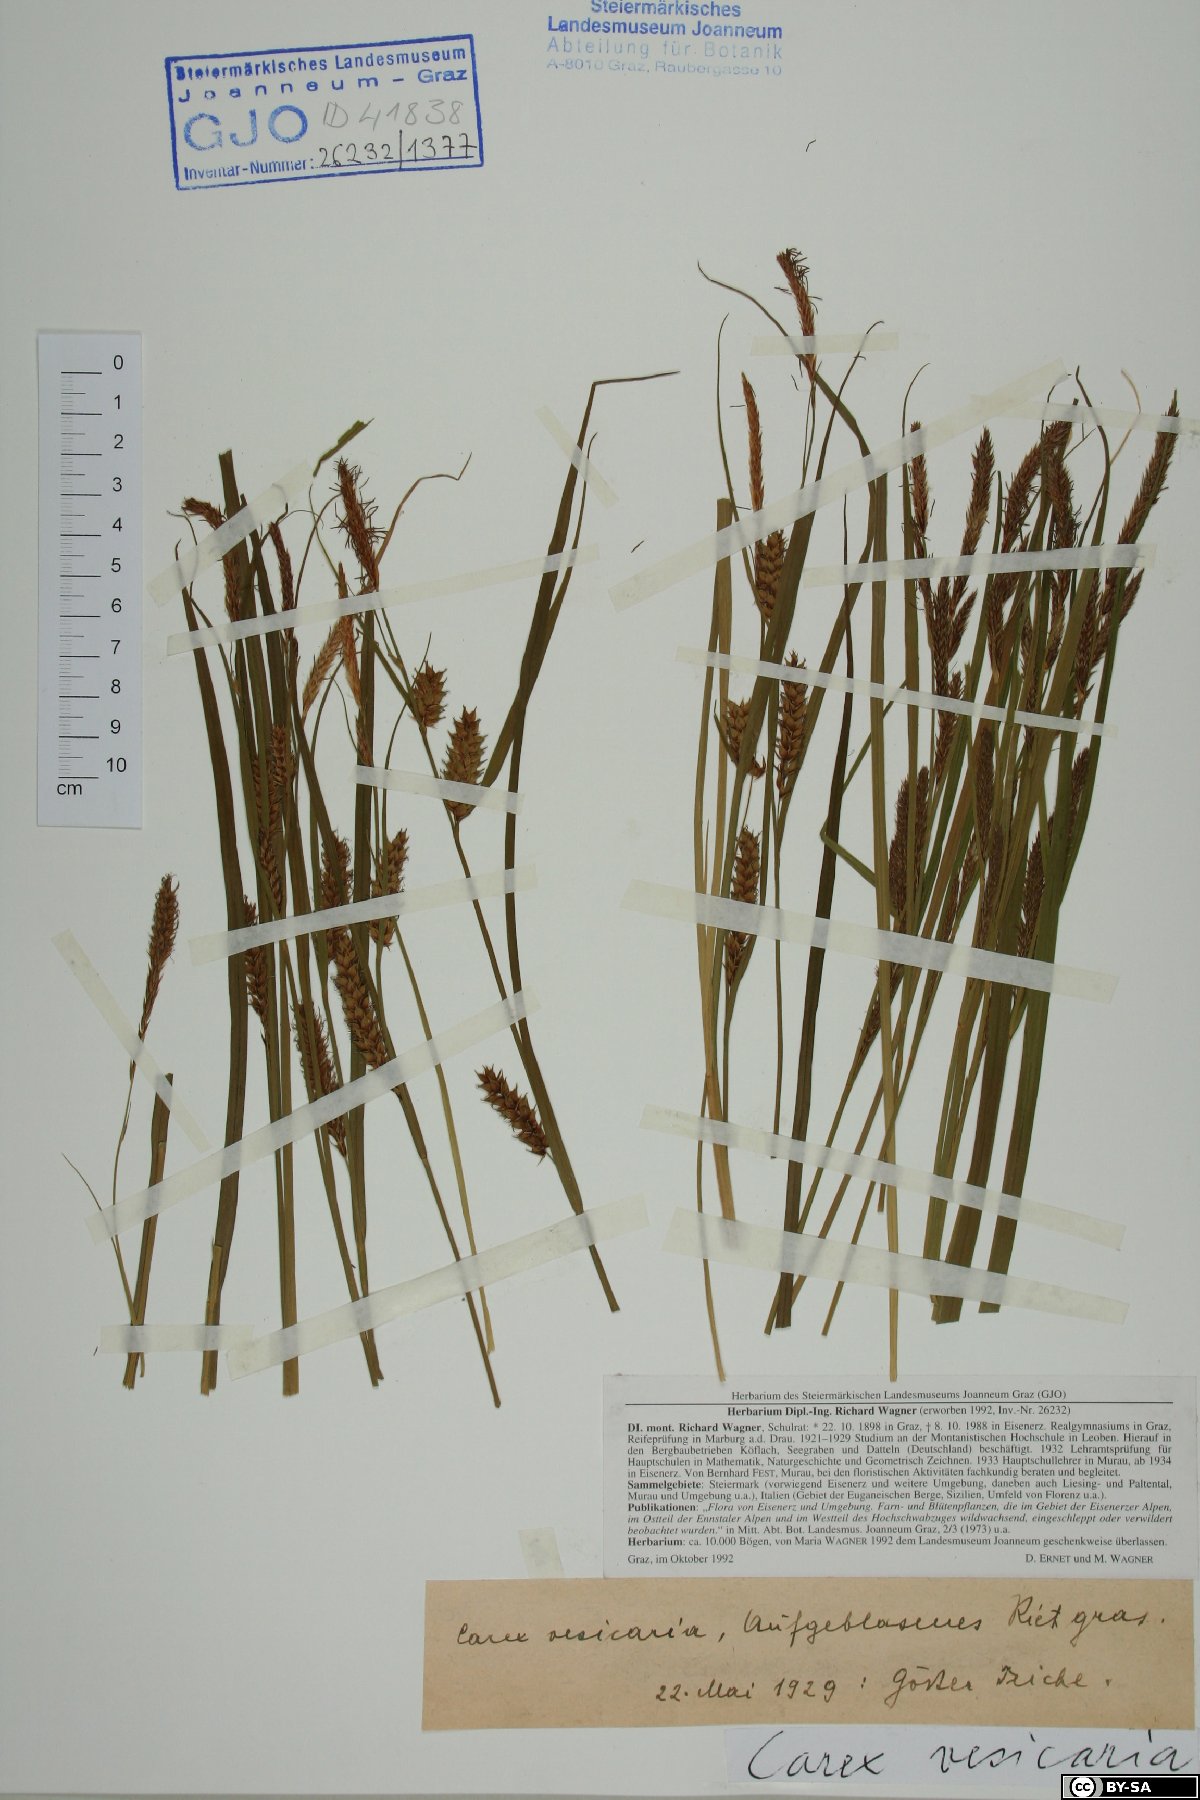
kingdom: Plantae
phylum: Tracheophyta
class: Liliopsida
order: Poales
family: Cyperaceae
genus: Carex
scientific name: Carex vesicaria
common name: Bladder-sedge
